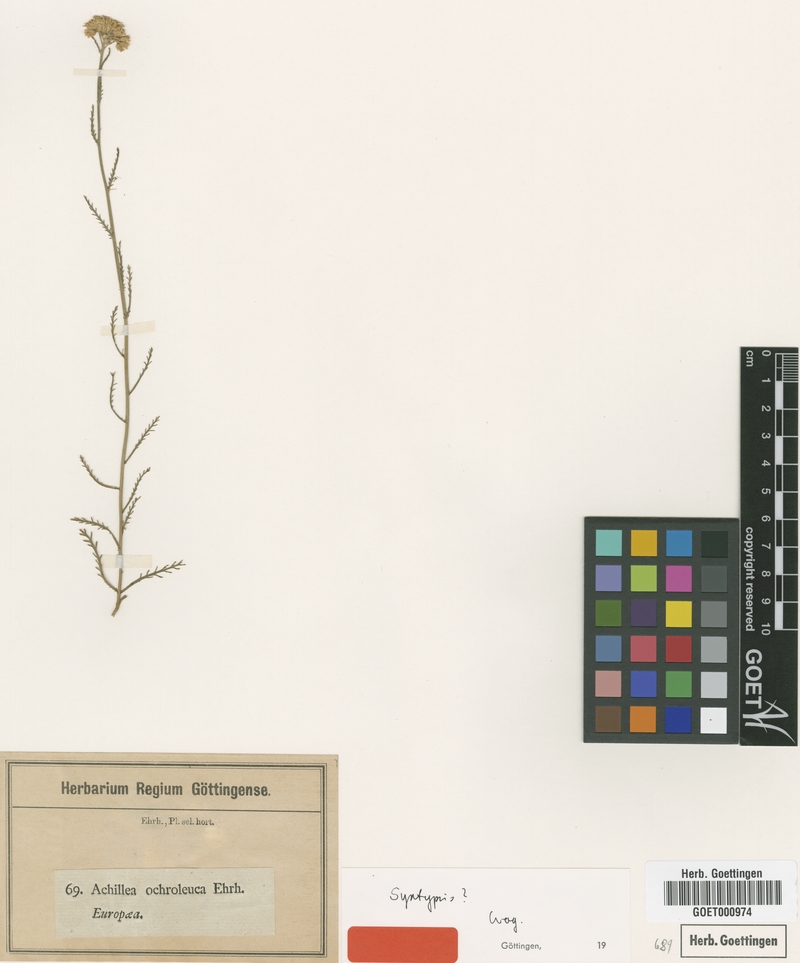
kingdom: Plantae
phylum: Tracheophyta
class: Magnoliopsida
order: Asterales
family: Asteraceae
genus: Achillea
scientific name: Achillea ochroleuca
